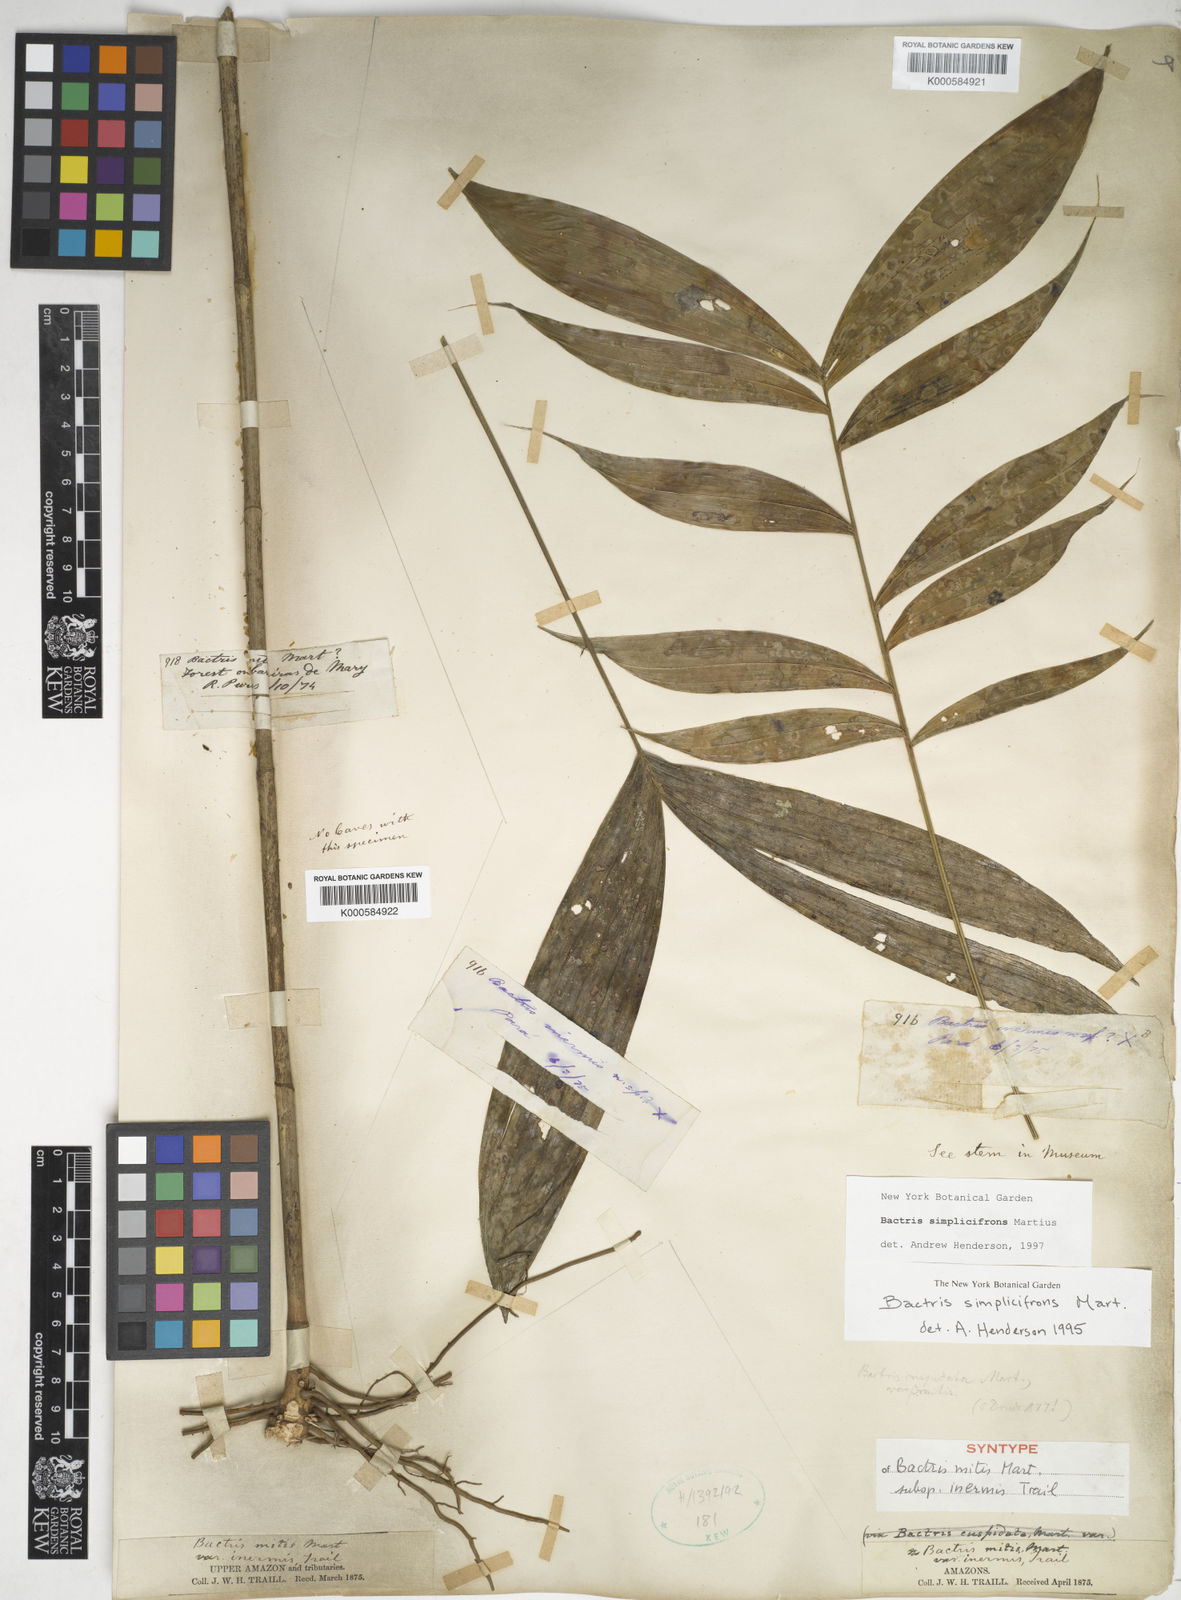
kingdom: Plantae
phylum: Tracheophyta
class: Liliopsida
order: Arecales
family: Arecaceae
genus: Bactris
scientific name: Bactris simplicifrons
